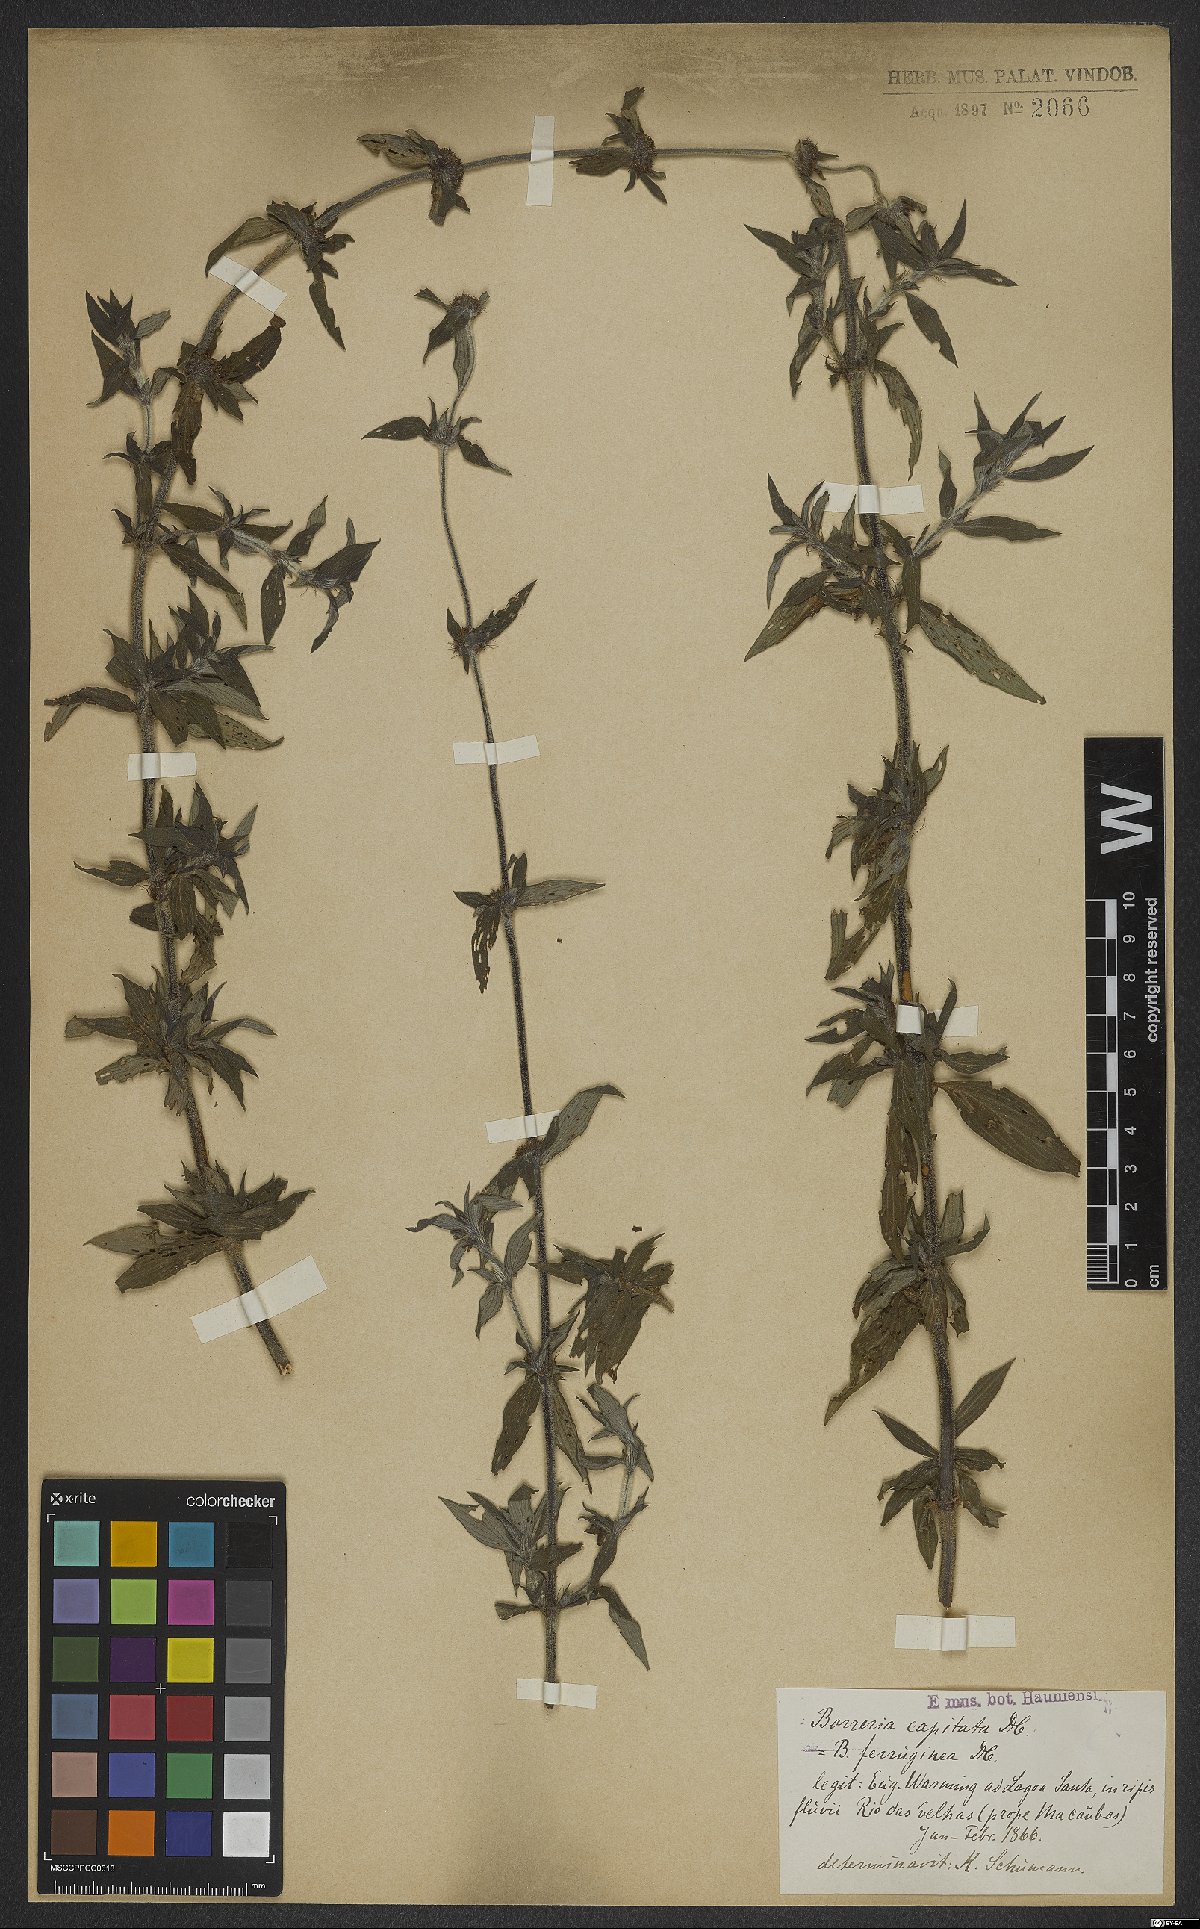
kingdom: Plantae
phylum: Tracheophyta
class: Magnoliopsida
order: Gentianales
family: Rubiaceae
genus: Spermacoce
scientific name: Spermacoce capitata
